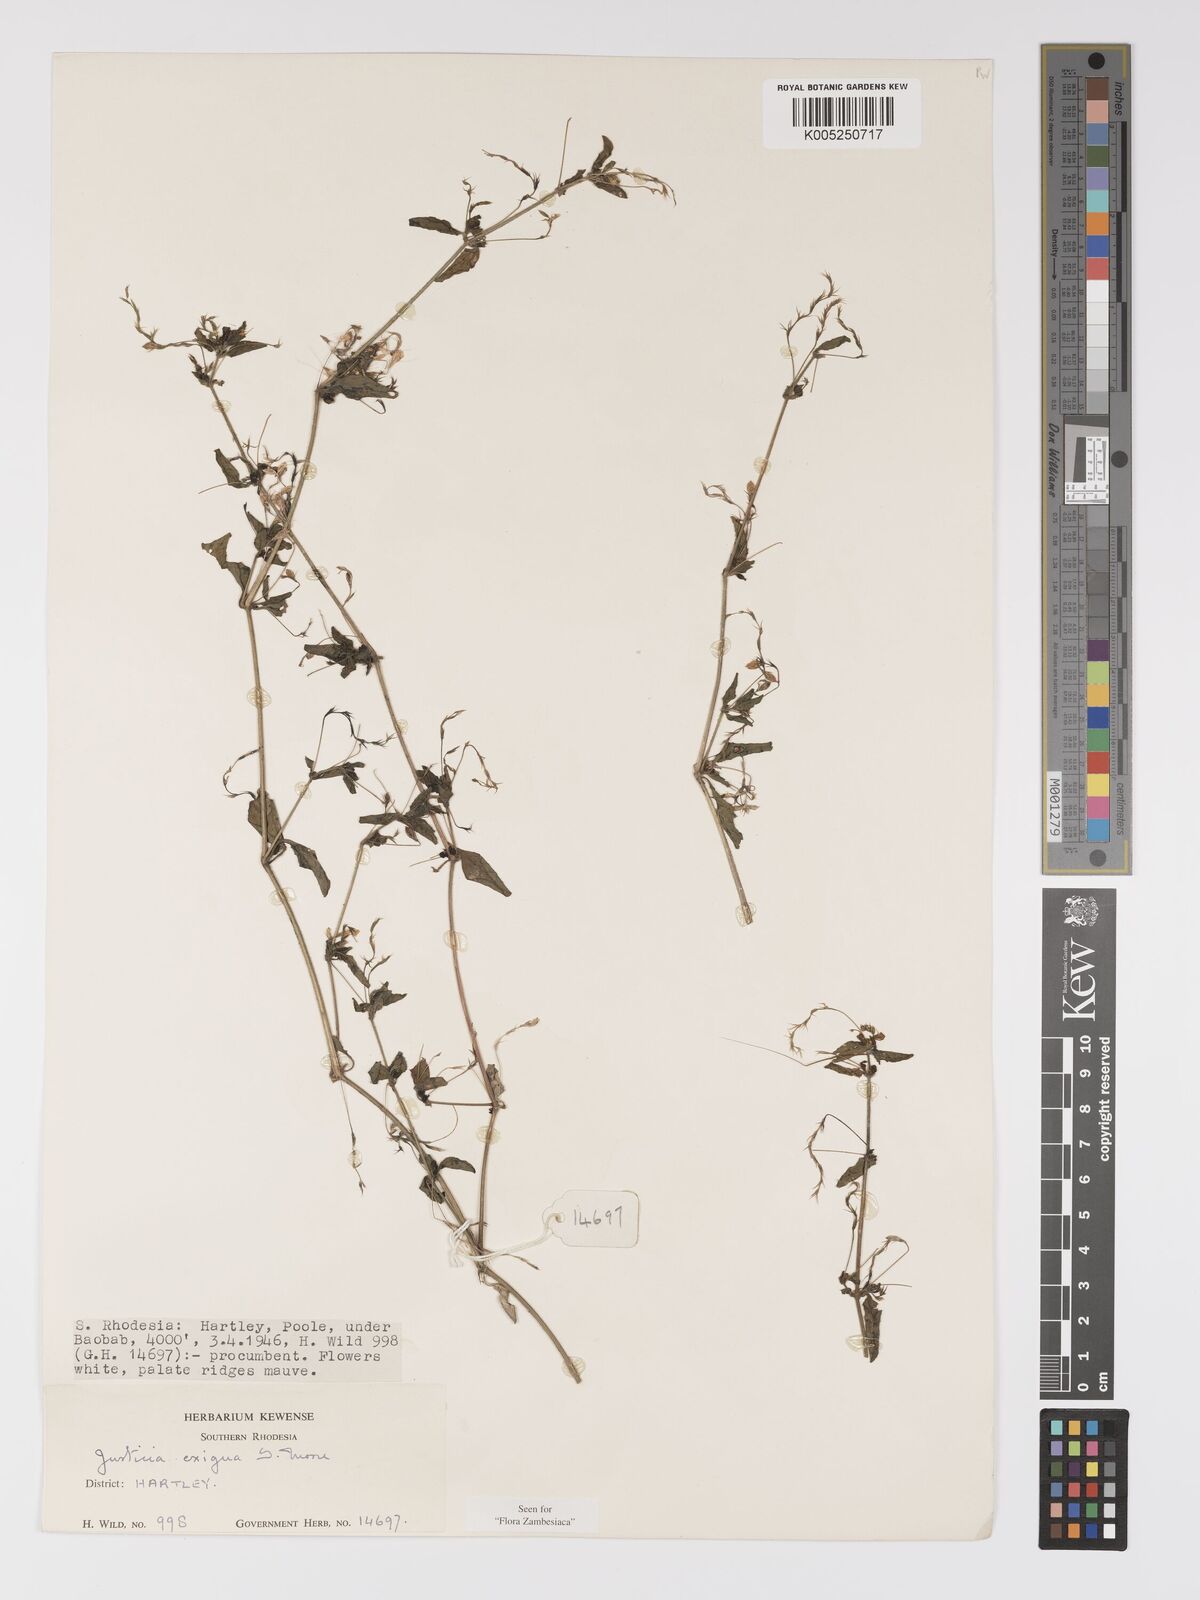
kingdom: Plantae
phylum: Tracheophyta
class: Magnoliopsida
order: Lamiales
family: Acanthaceae
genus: Justicia
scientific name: Justicia exigua
